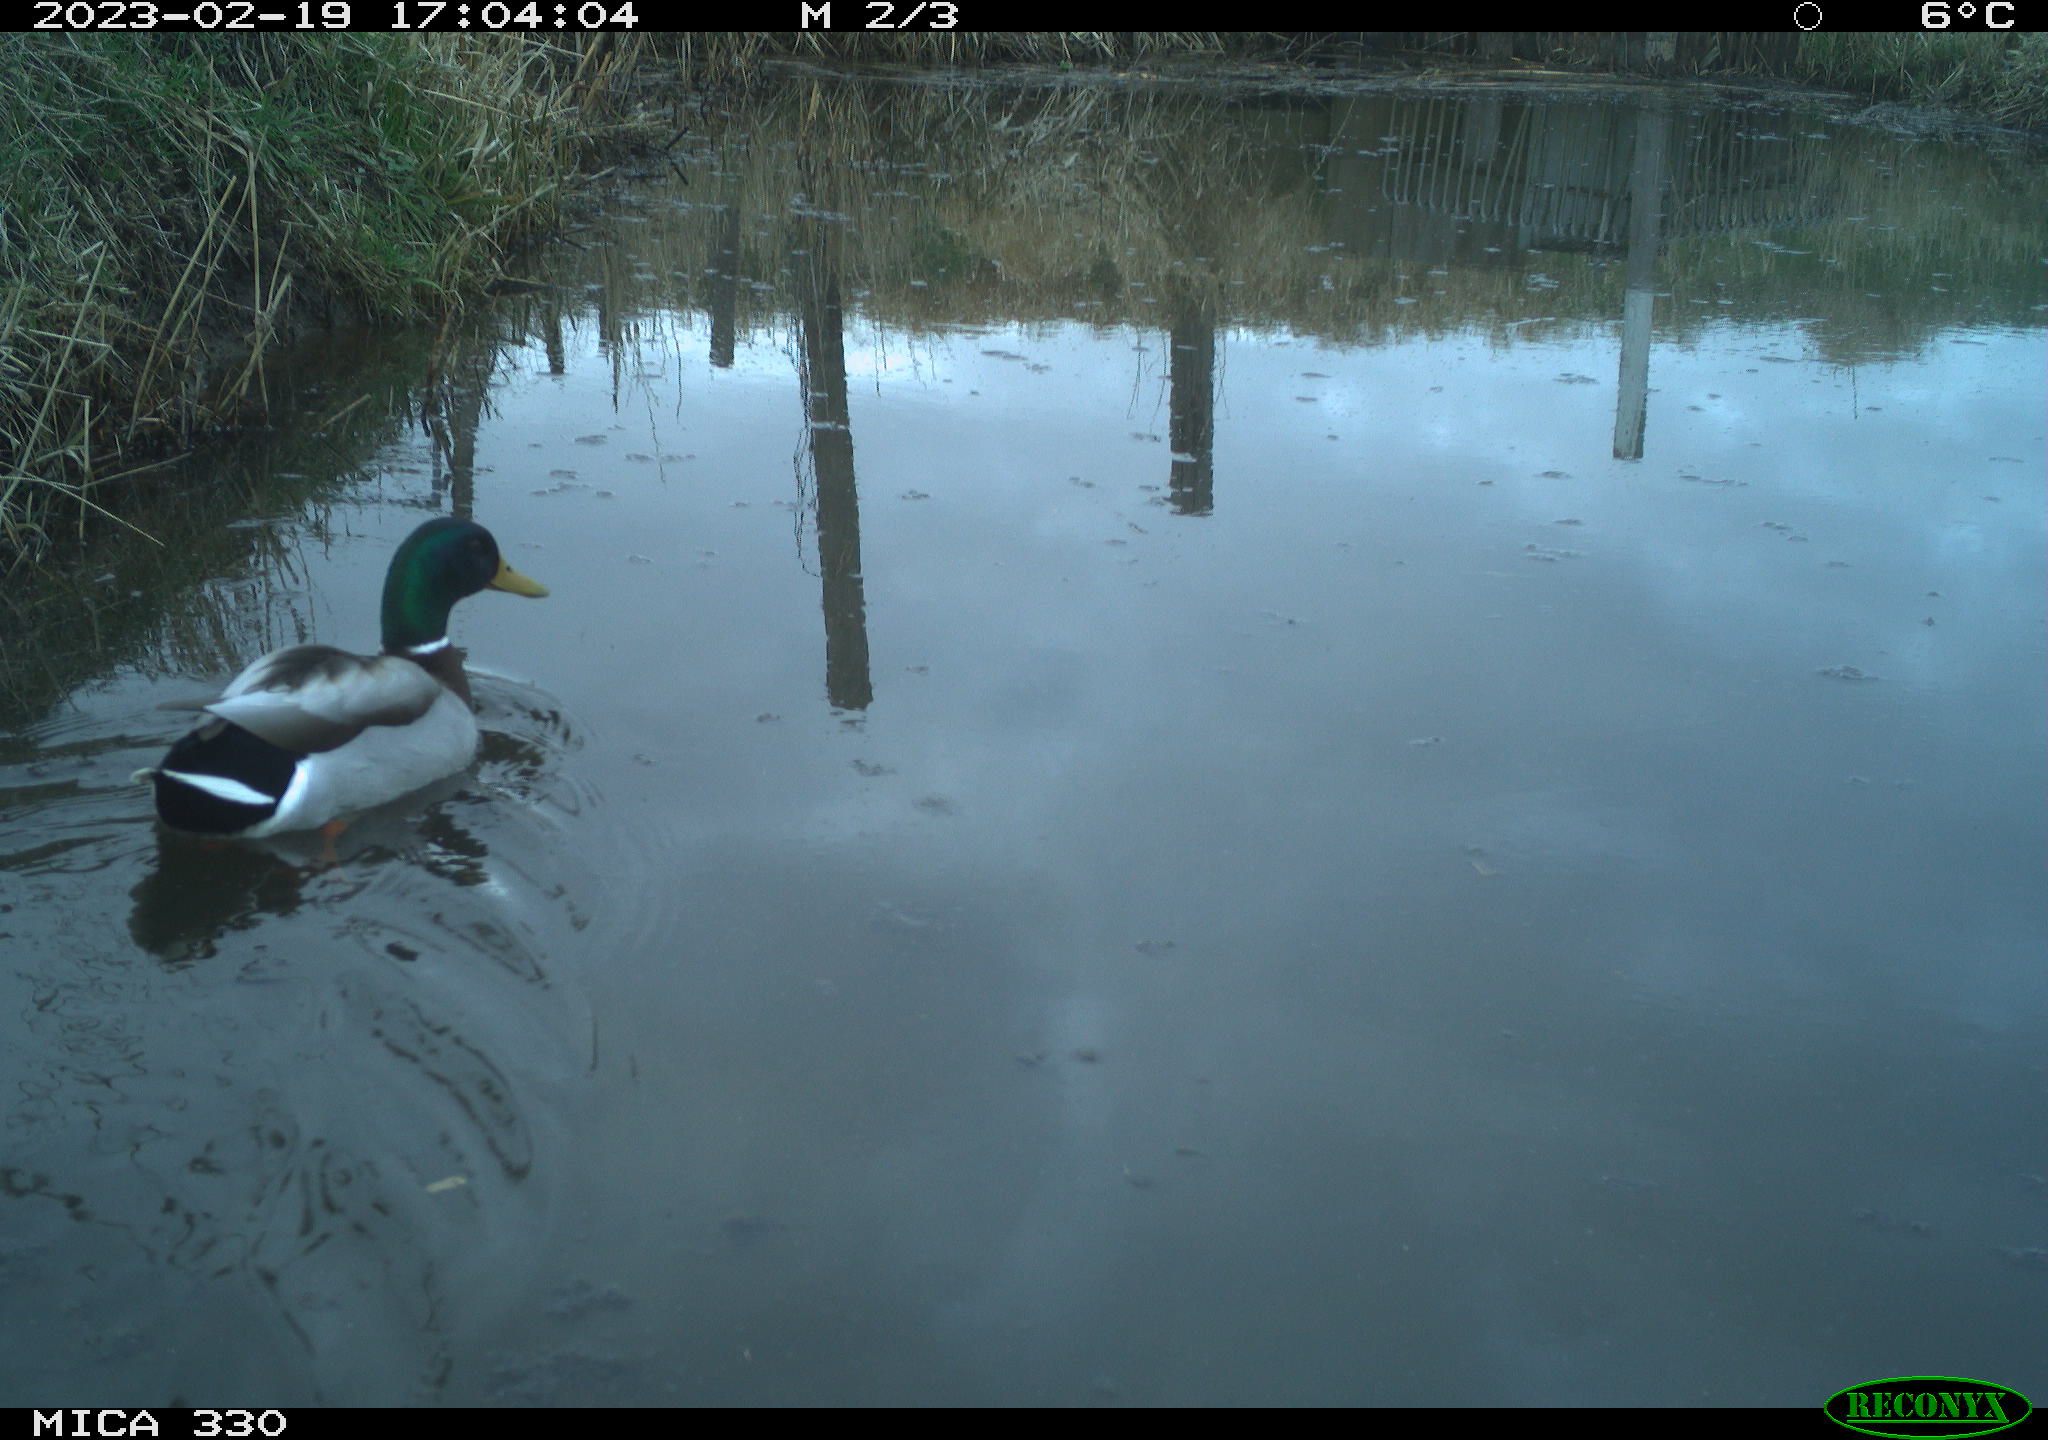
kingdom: Animalia
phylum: Chordata
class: Aves
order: Anseriformes
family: Anatidae
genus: Anas
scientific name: Anas
